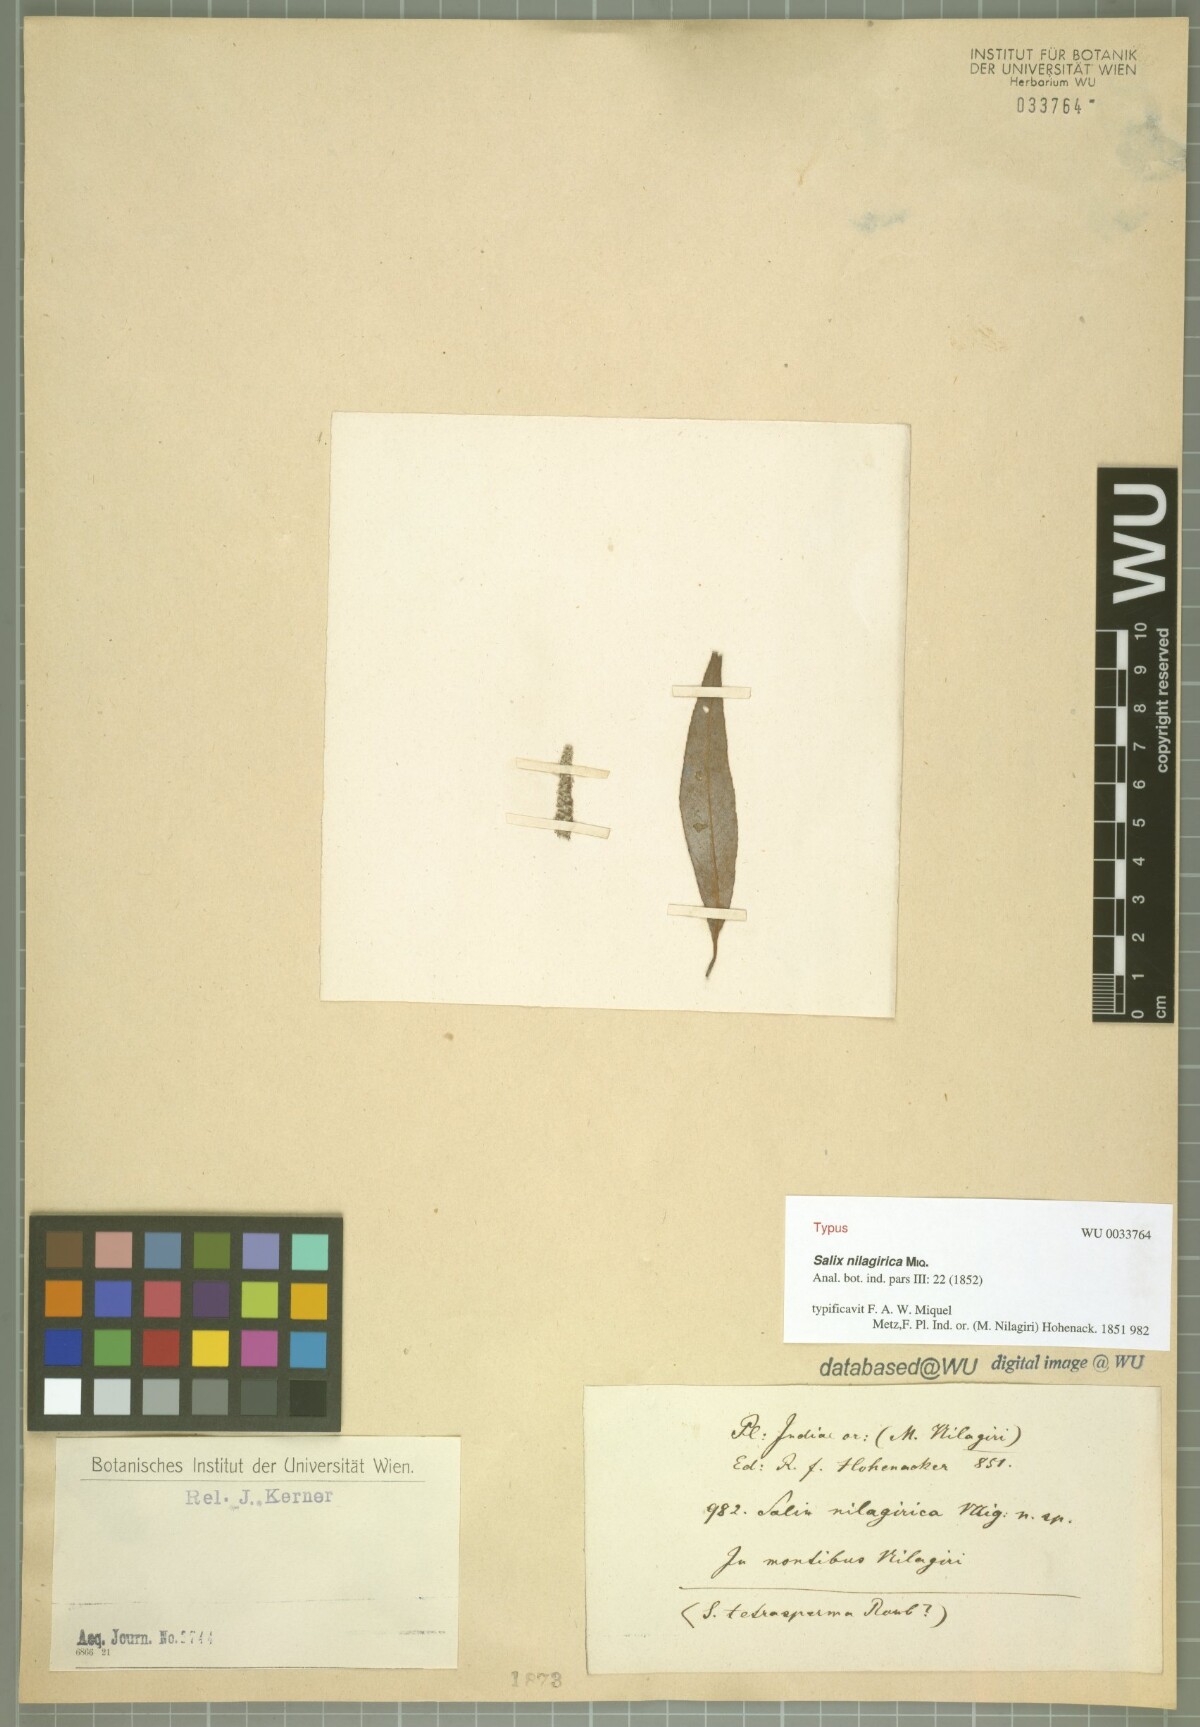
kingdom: Plantae
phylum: Tracheophyta
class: Magnoliopsida
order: Malpighiales
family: Salicaceae
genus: Salix
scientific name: Salix tetrasperma
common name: Indian willow
